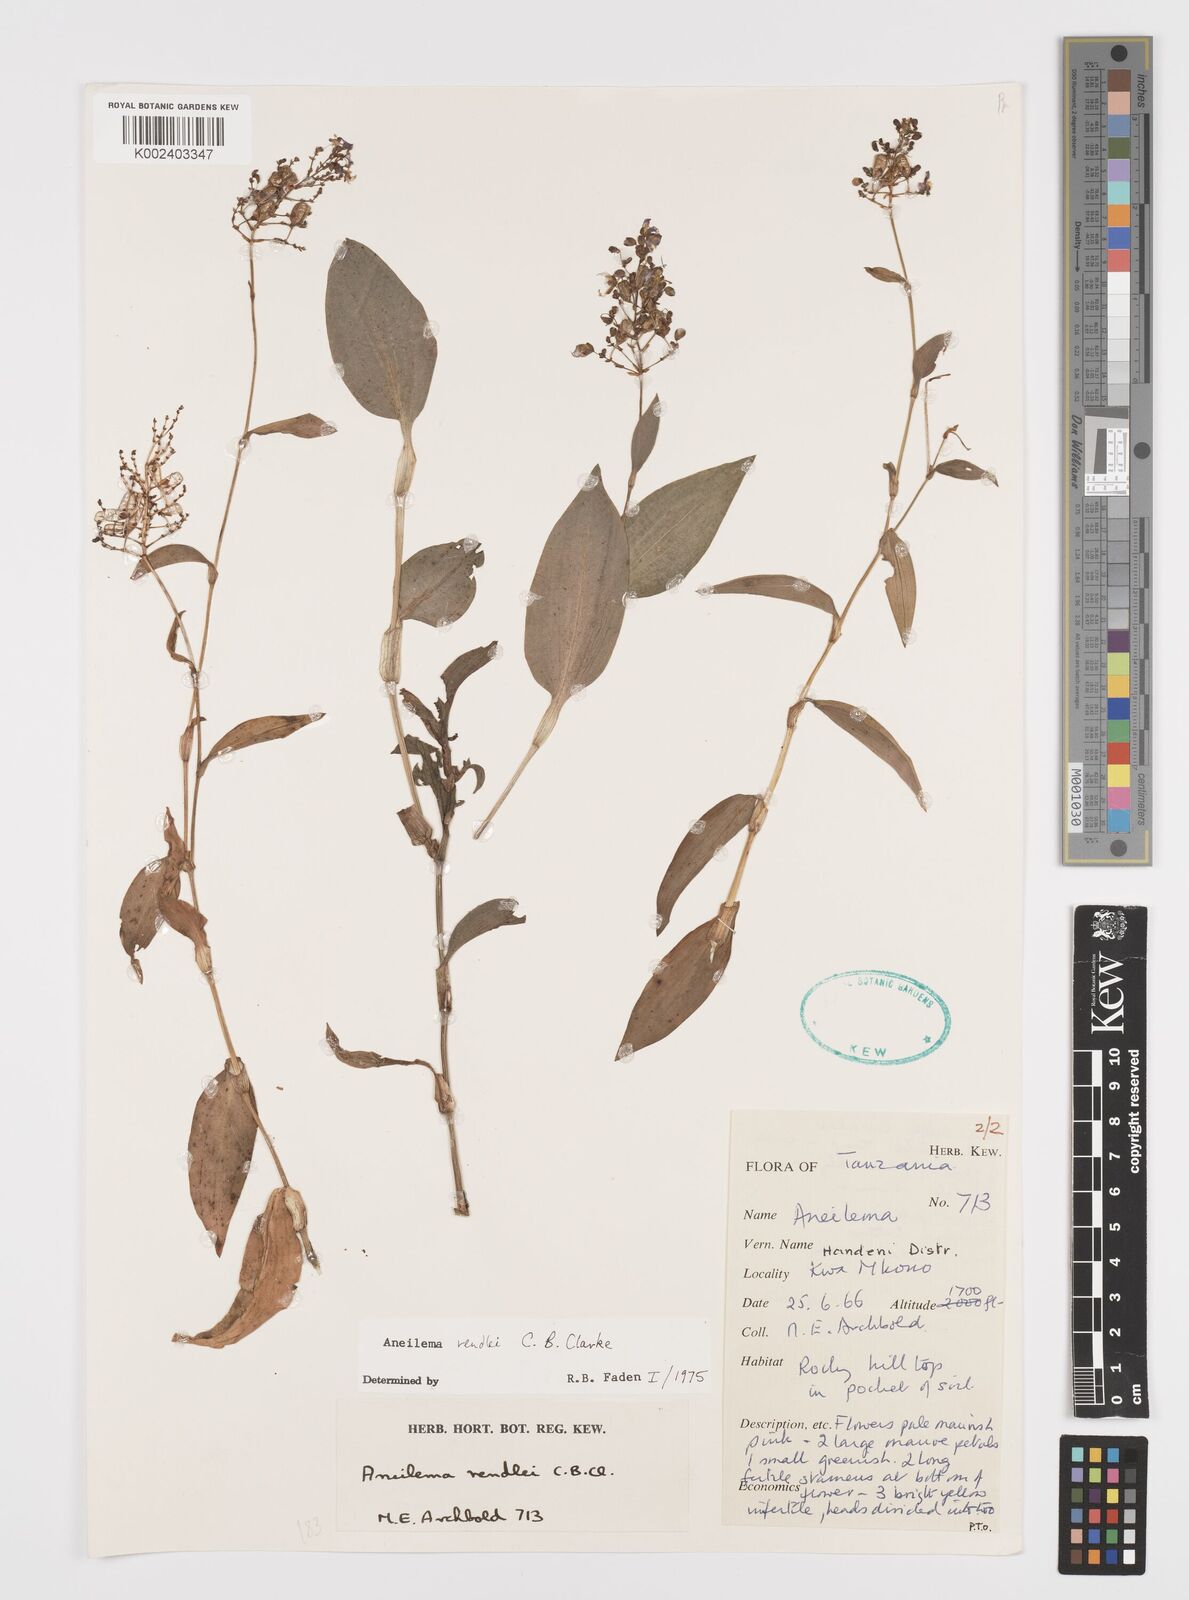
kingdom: Plantae
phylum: Tracheophyta
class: Liliopsida
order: Commelinales
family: Commelinaceae
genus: Aneilema
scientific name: Aneilema rendlei
